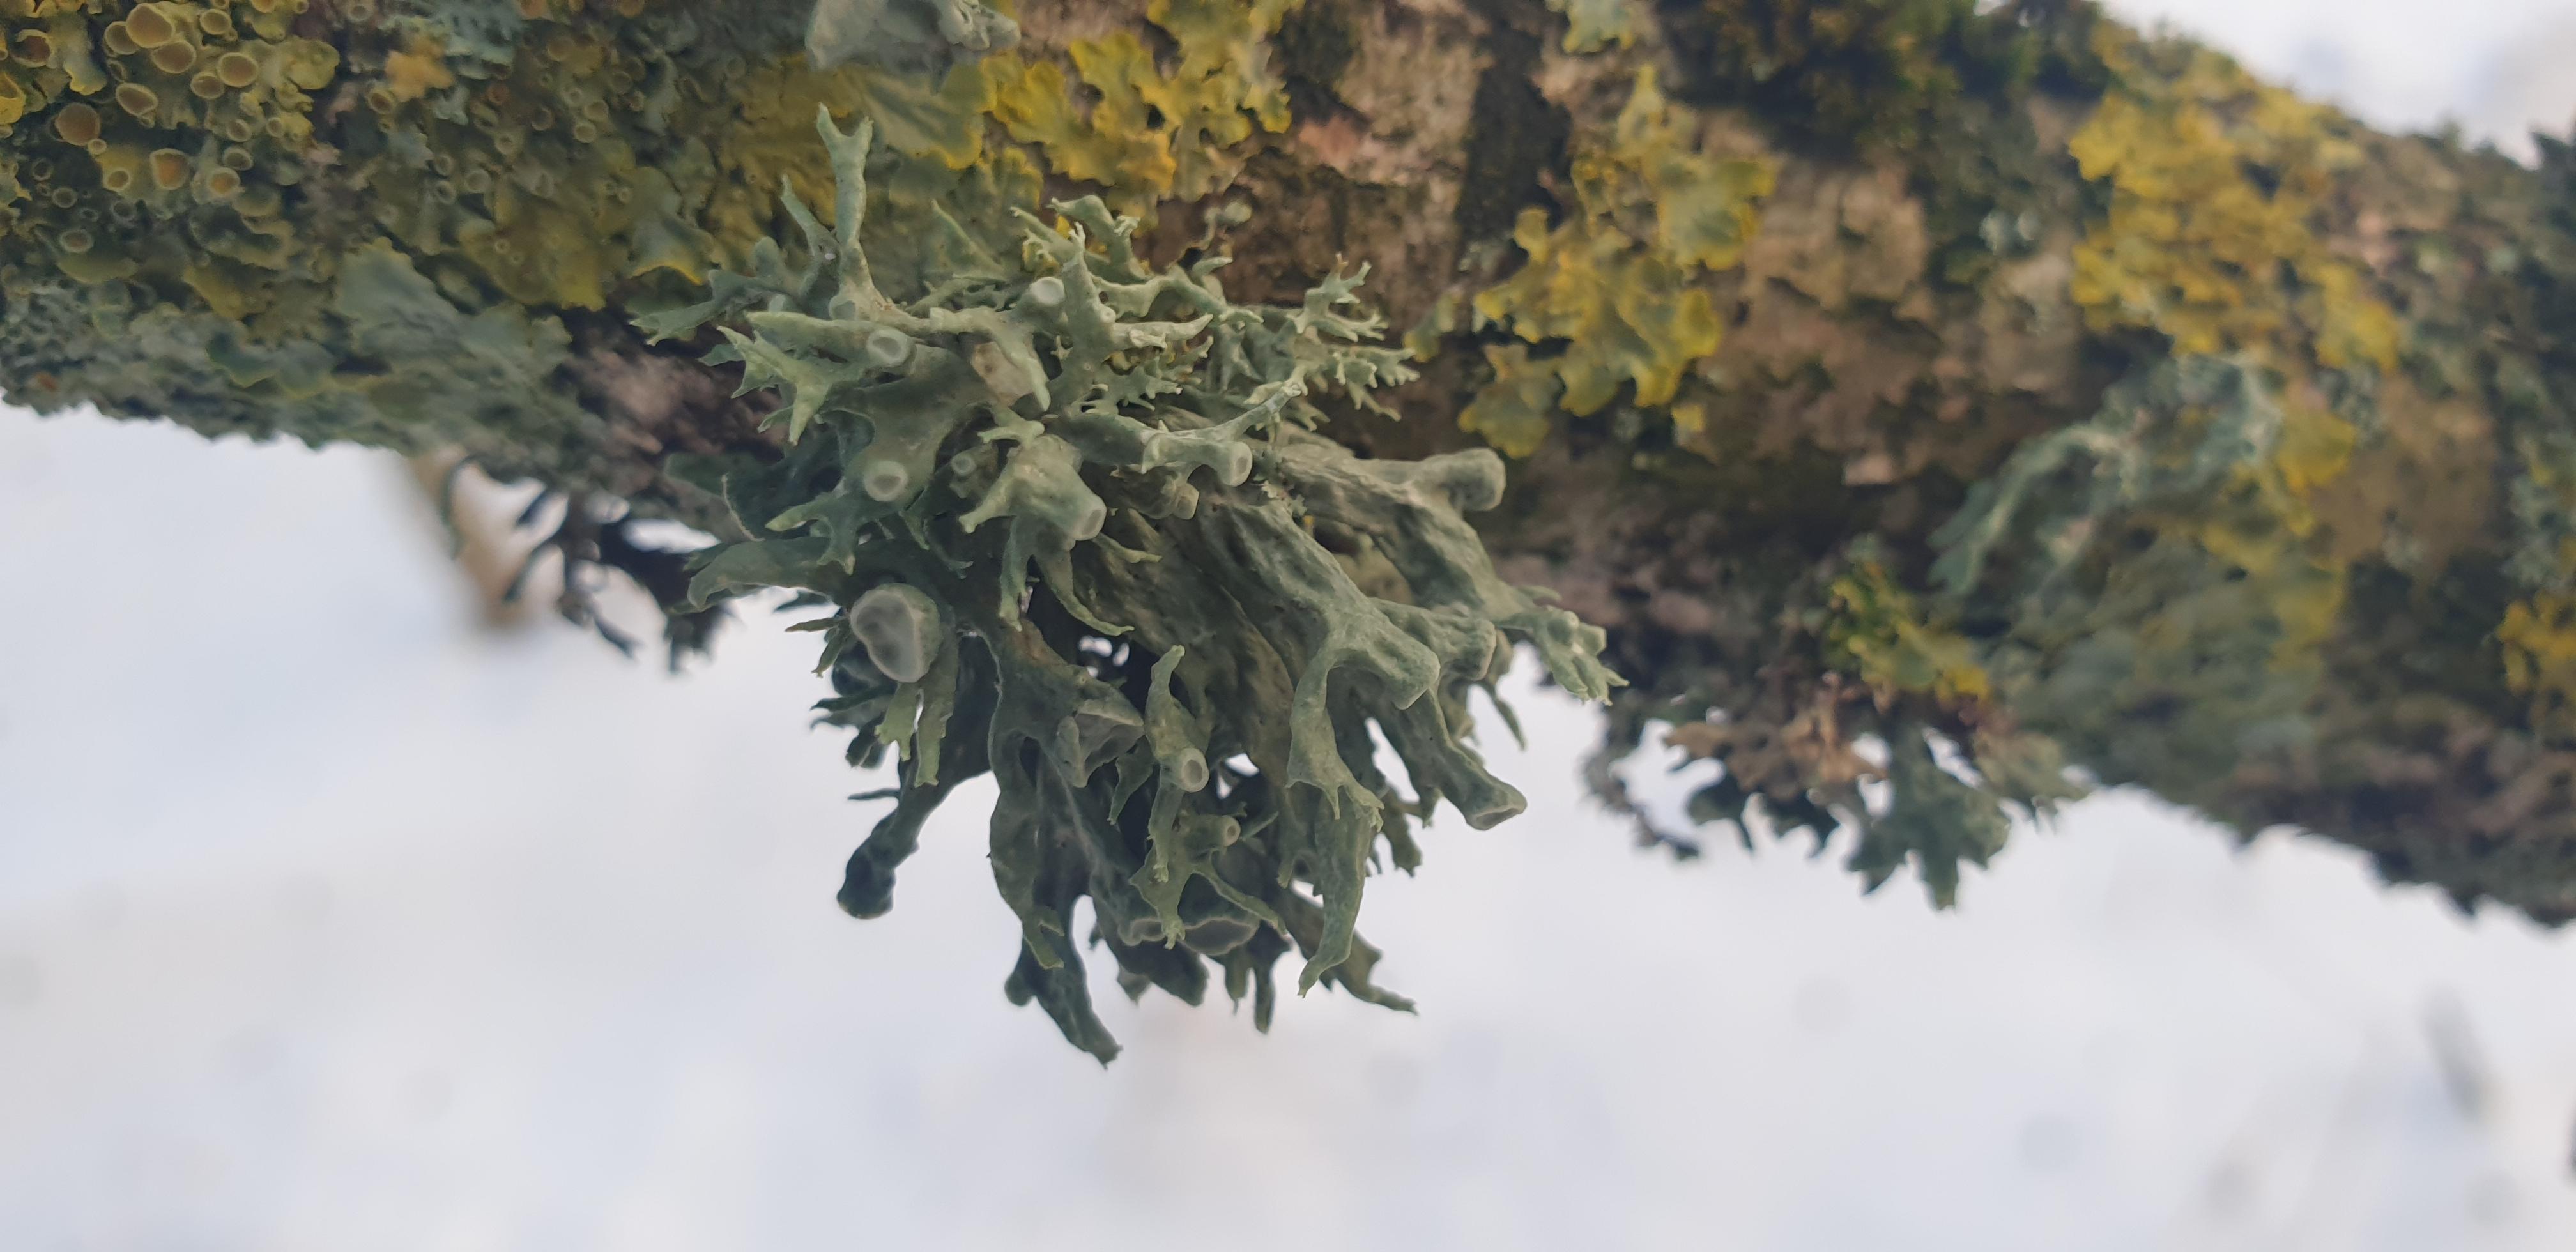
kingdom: Fungi
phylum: Ascomycota
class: Lecanoromycetes
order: Lecanorales
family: Ramalinaceae
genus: Ramalina
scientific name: Ramalina fastigiata
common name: tue-grenlav
